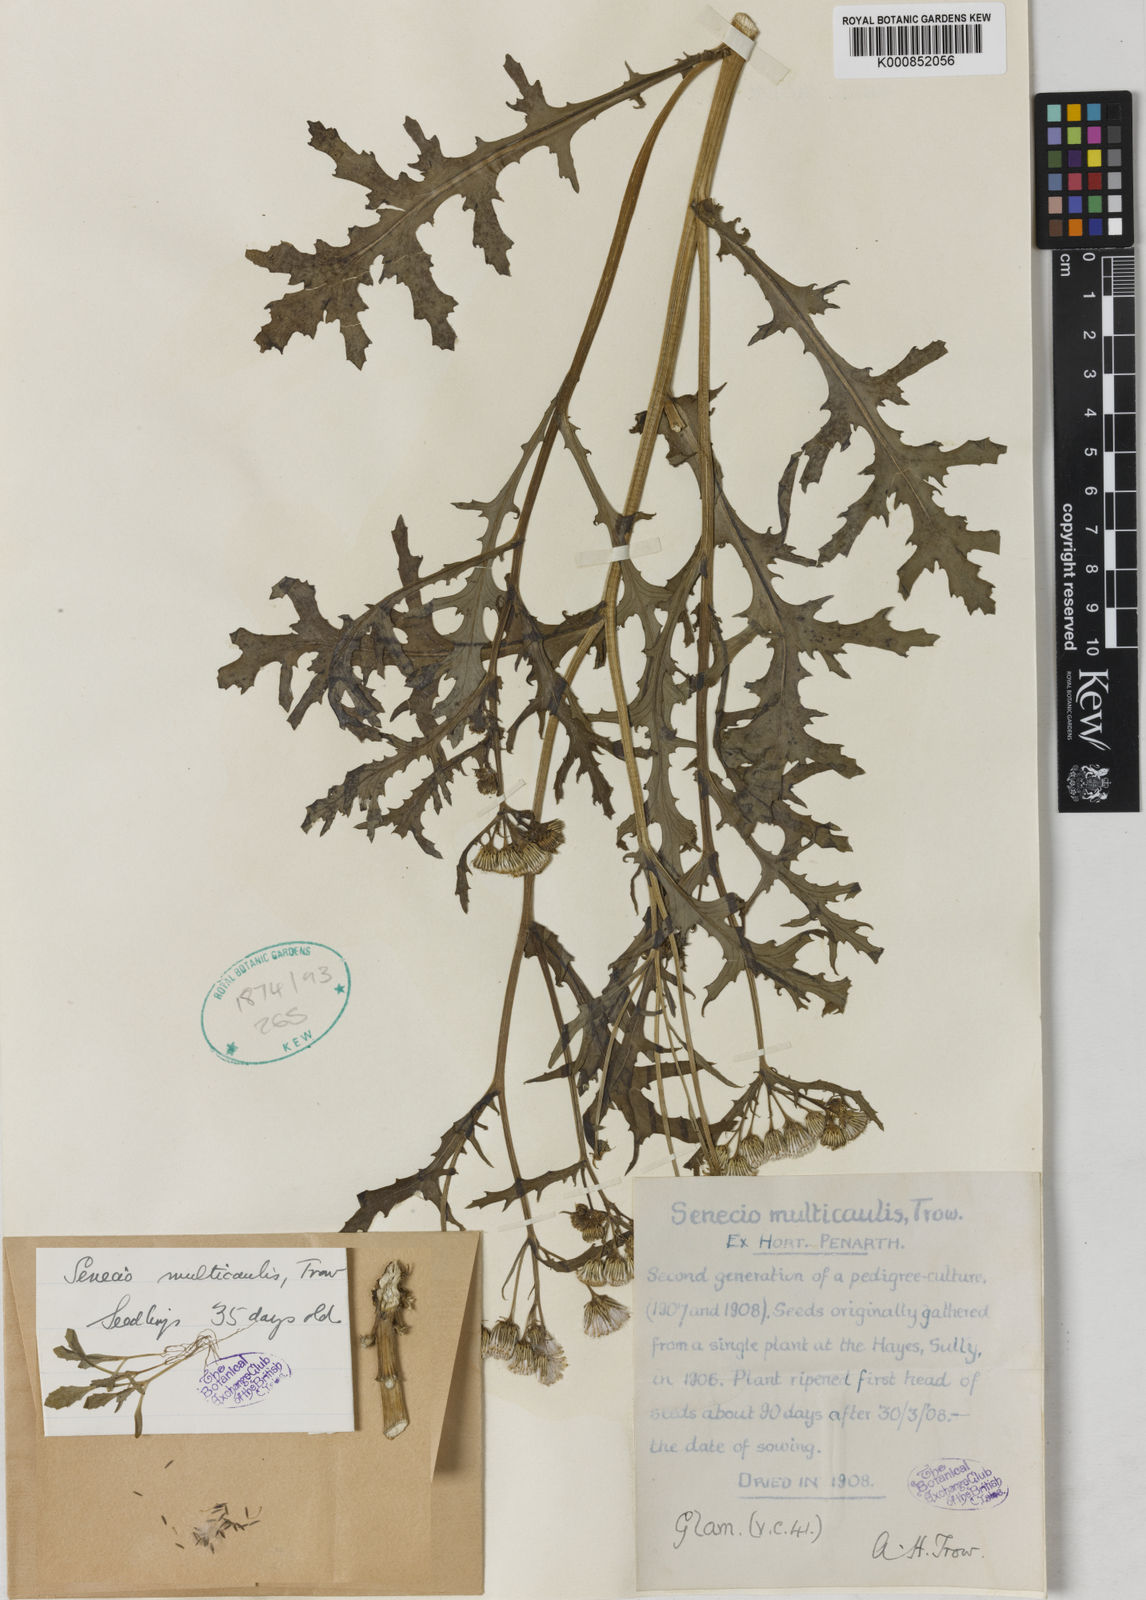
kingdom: Plantae
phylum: Tracheophyta
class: Magnoliopsida
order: Asterales
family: Asteraceae
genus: Senecio
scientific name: Senecio vulgaris
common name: Old-man-in-the-spring
